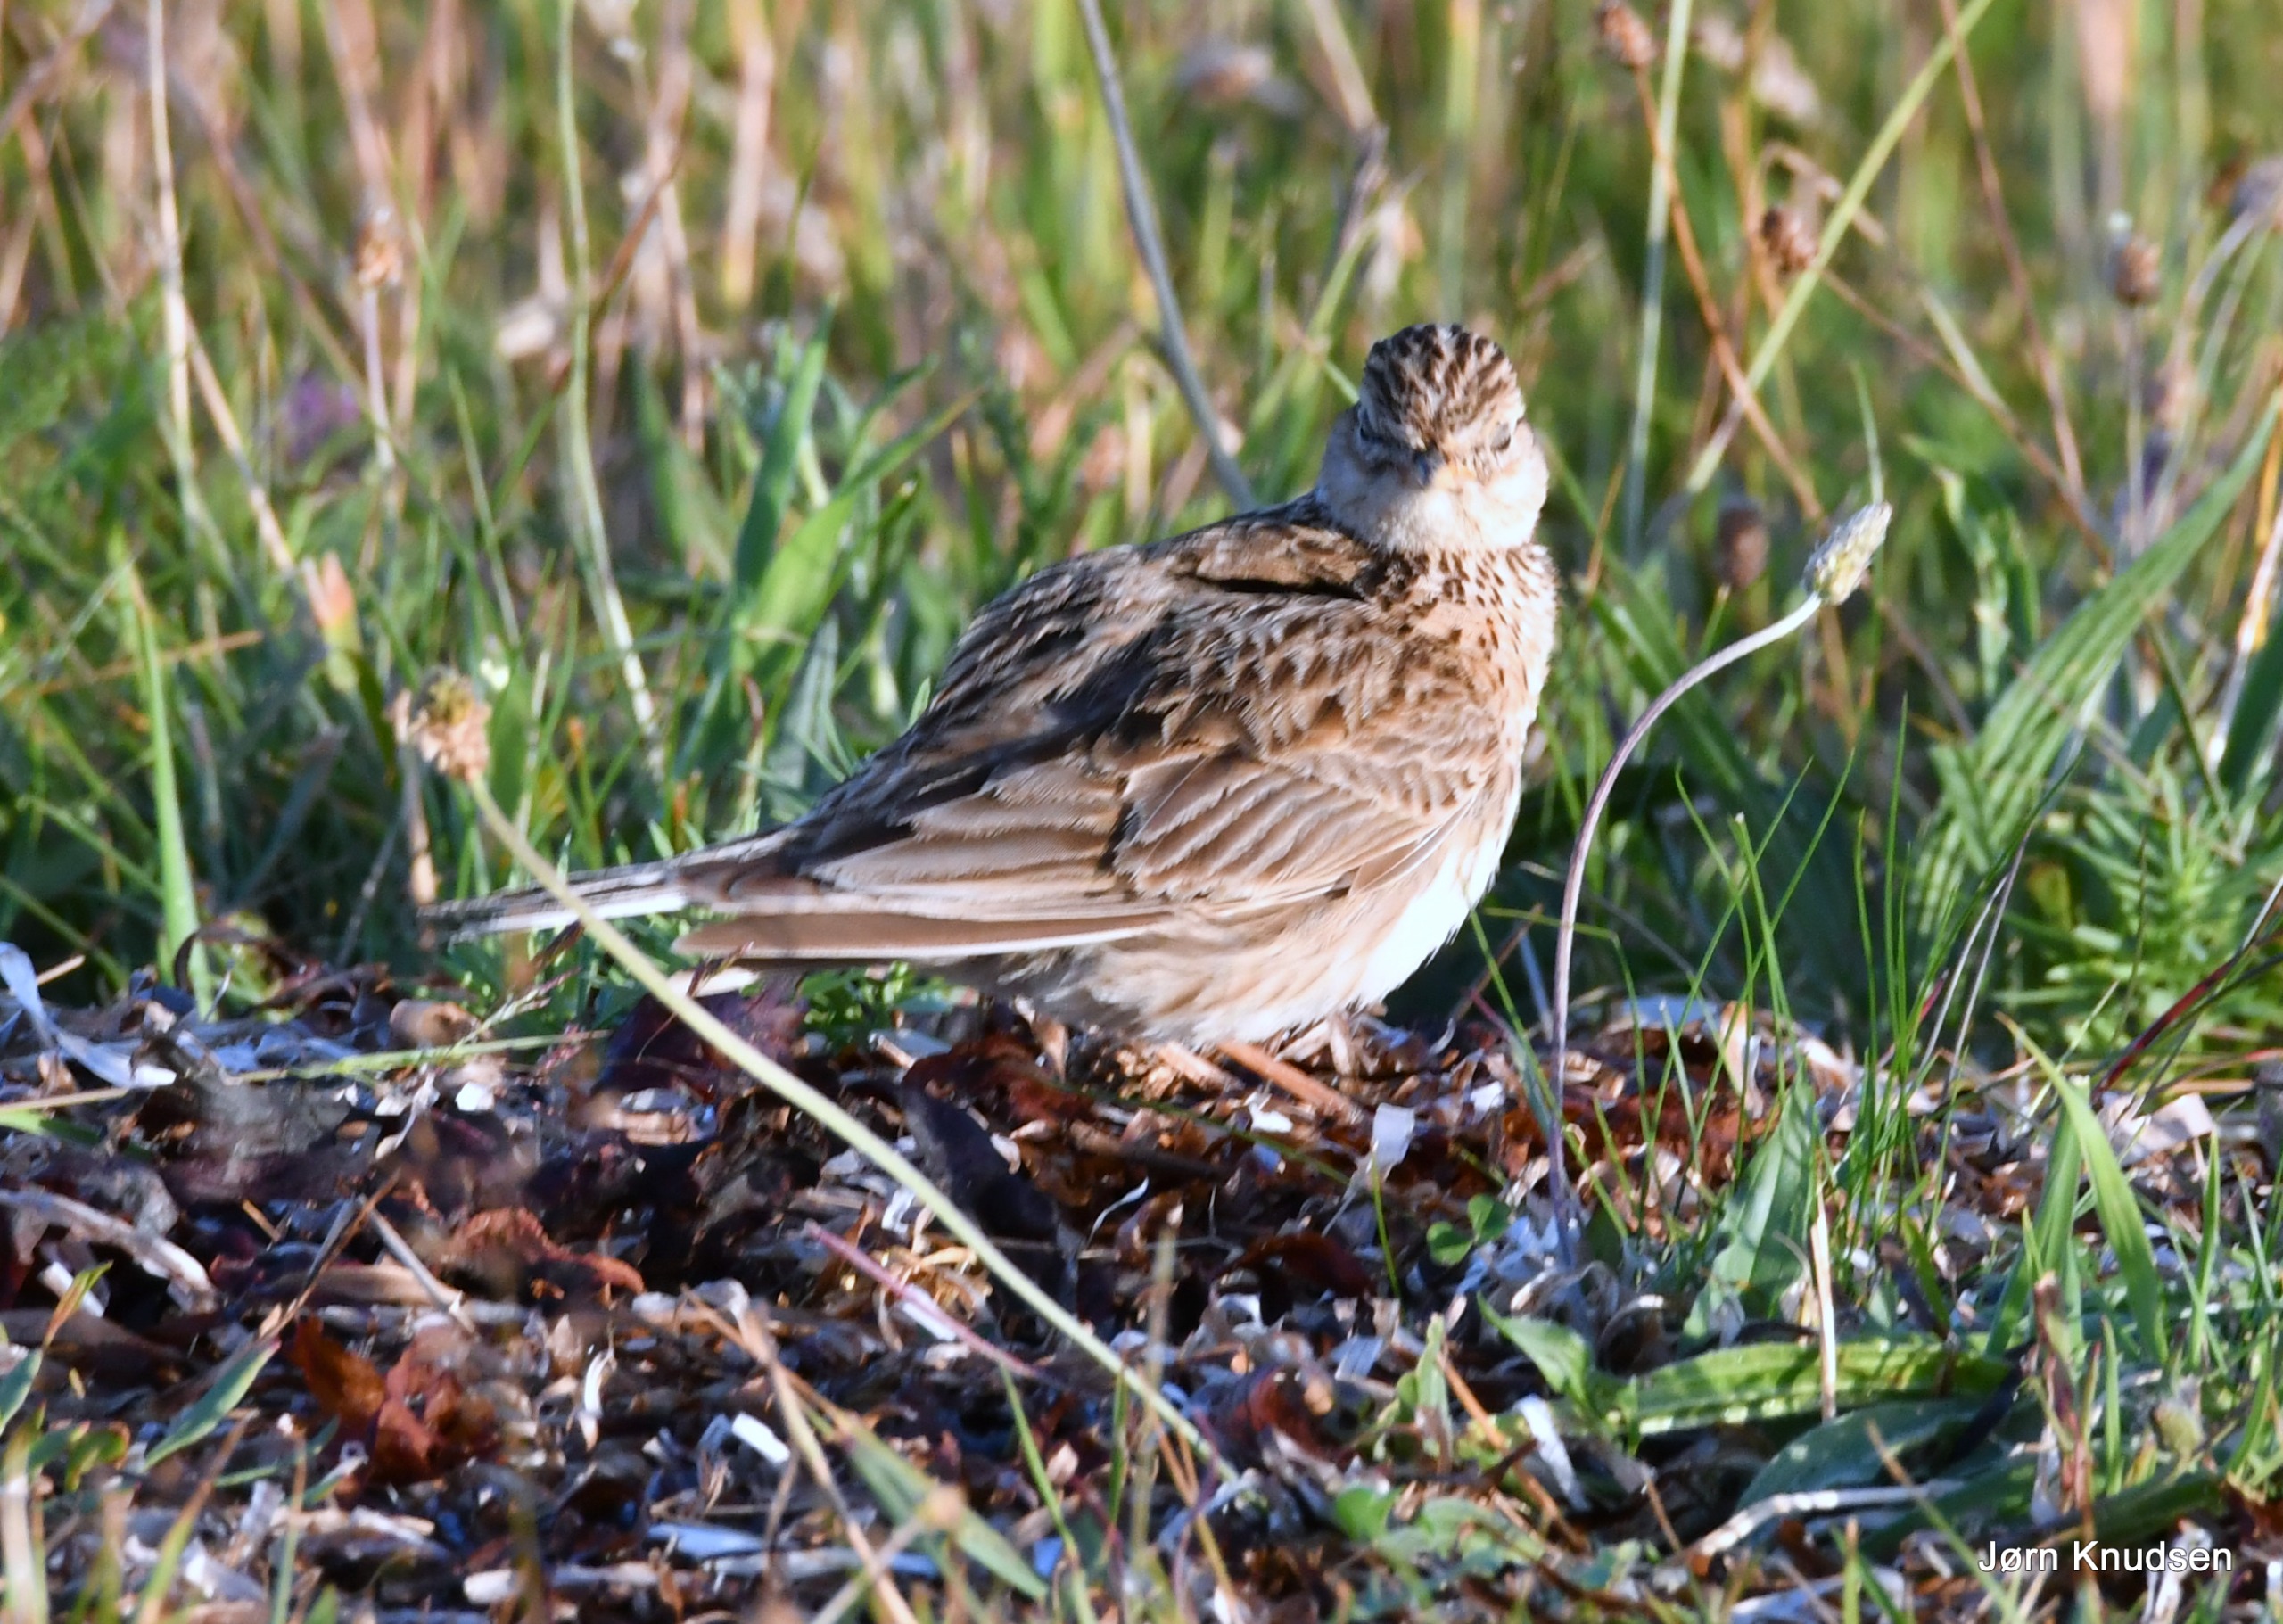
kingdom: Animalia
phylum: Chordata
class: Aves
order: Passeriformes
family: Alaudidae
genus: Alauda
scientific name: Alauda arvensis
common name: Sanglærke
